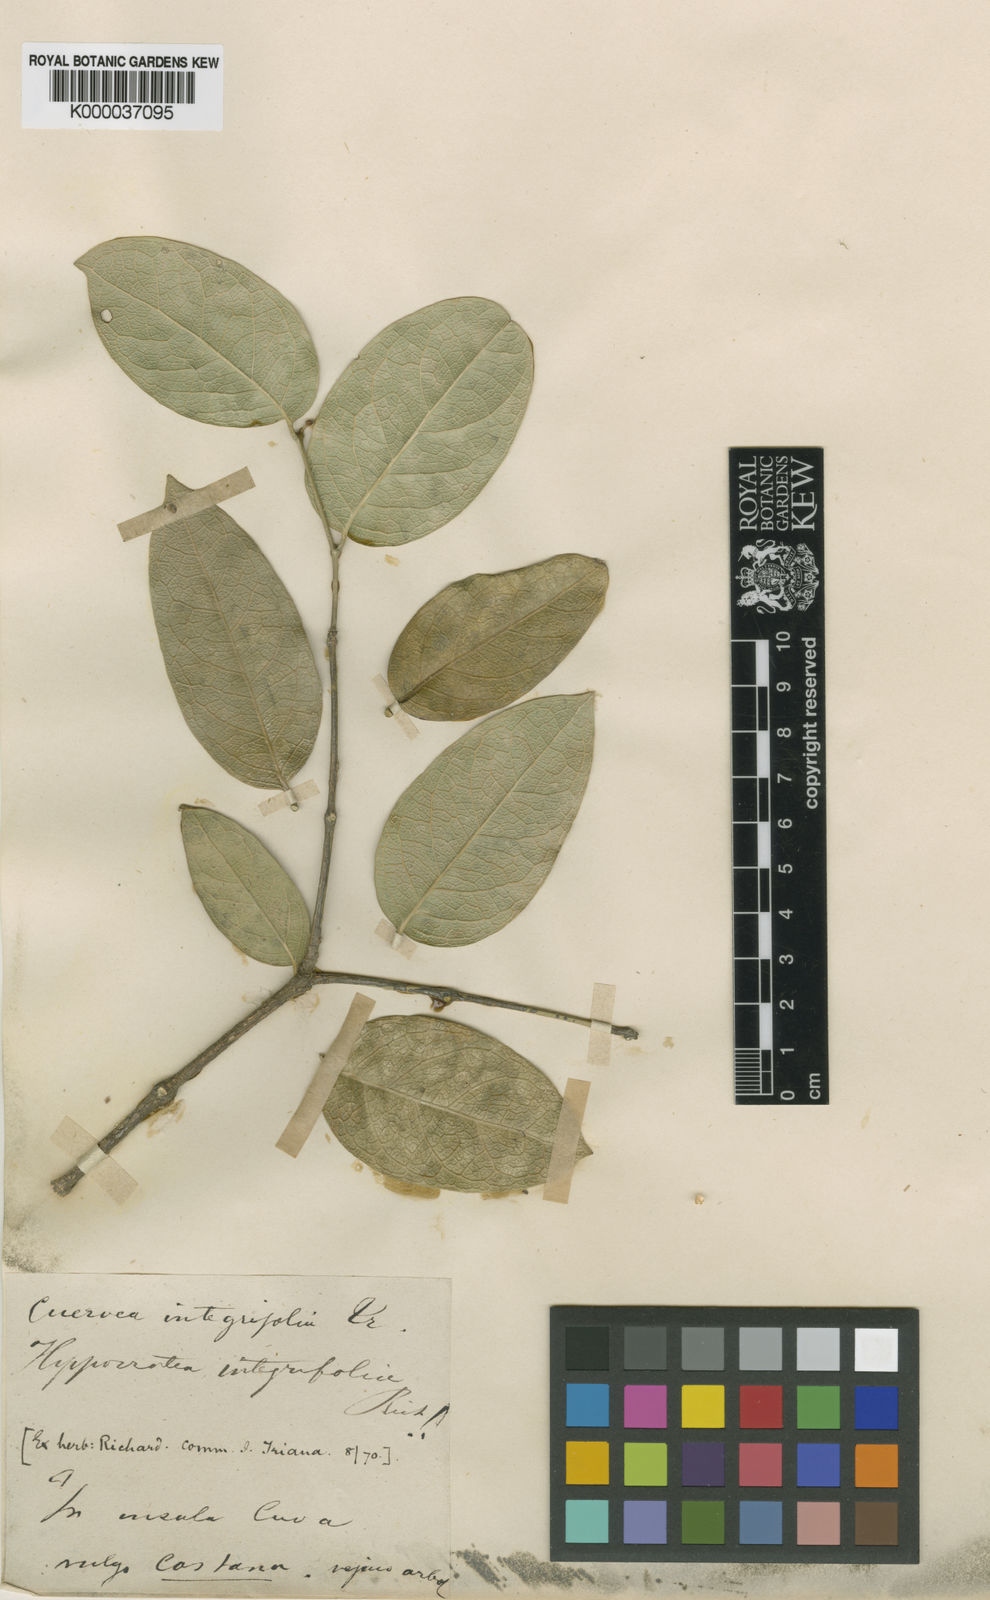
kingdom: Plantae
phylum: Tracheophyta
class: Magnoliopsida
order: Celastrales
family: Celastraceae
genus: Cuervea
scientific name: Cuervea integrifolia
